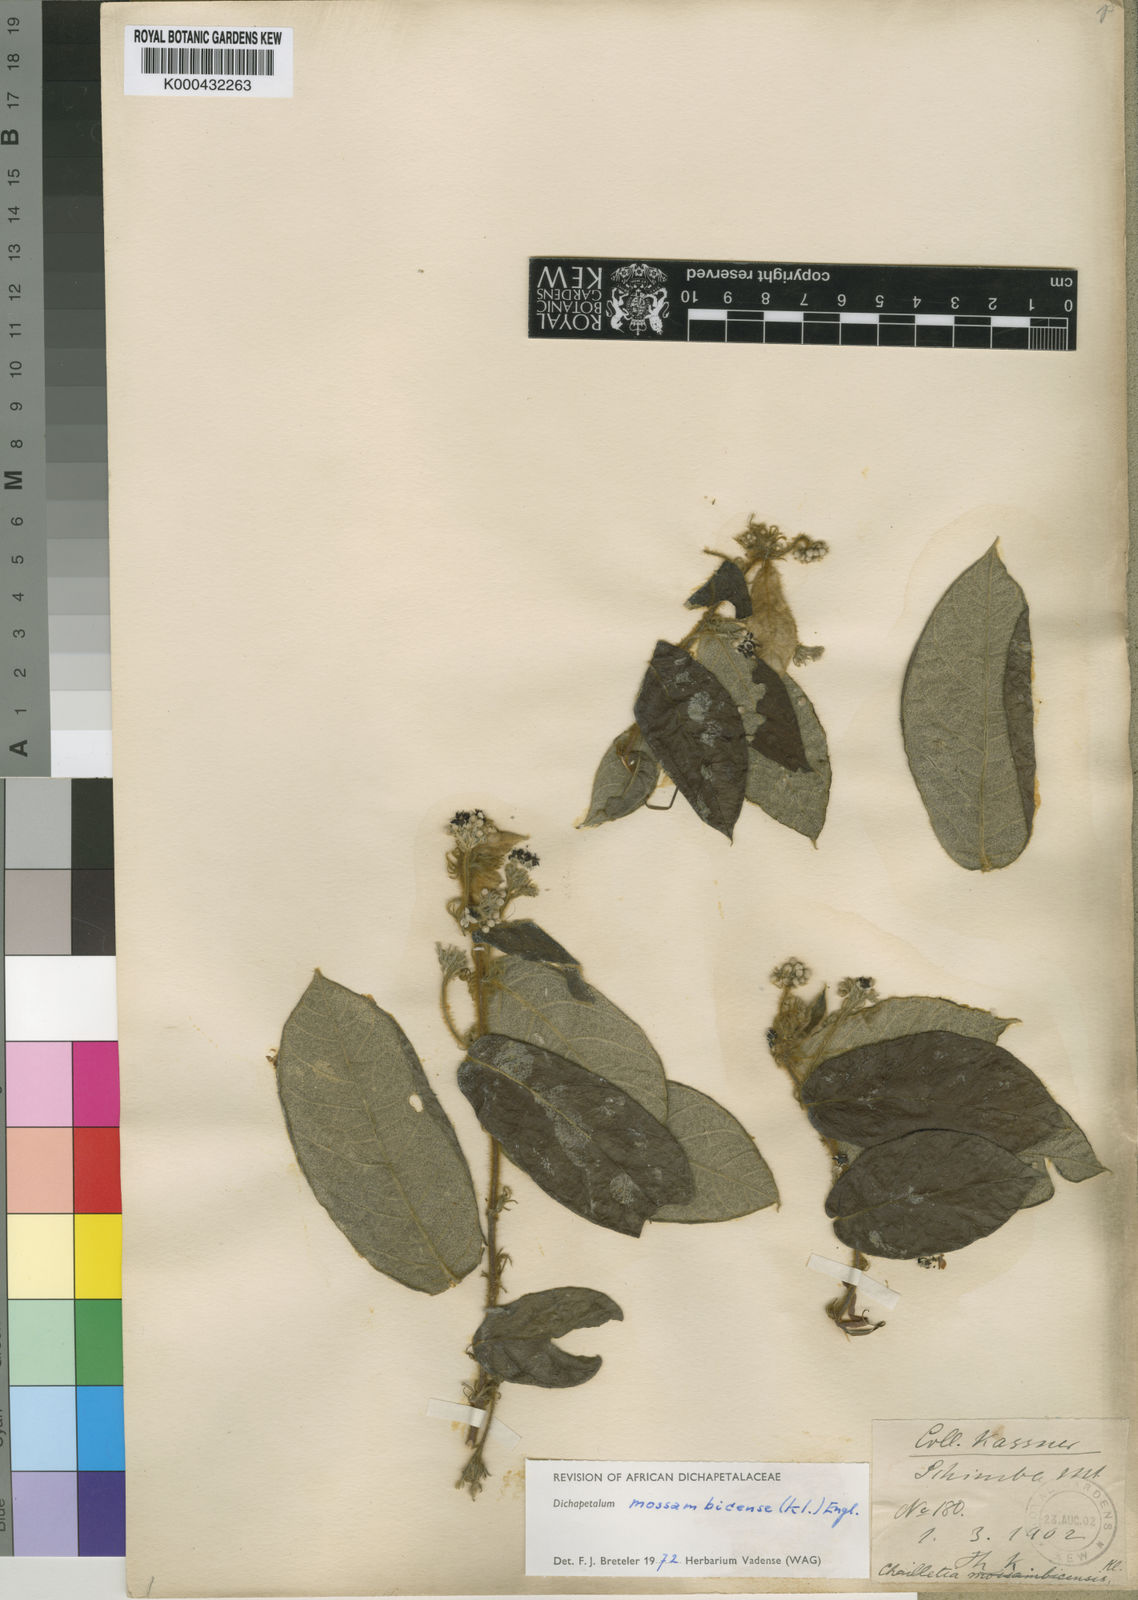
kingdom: Plantae
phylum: Tracheophyta
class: Magnoliopsida
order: Malpighiales
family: Dichapetalaceae
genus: Dichapetalum
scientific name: Dichapetalum mossambicense
